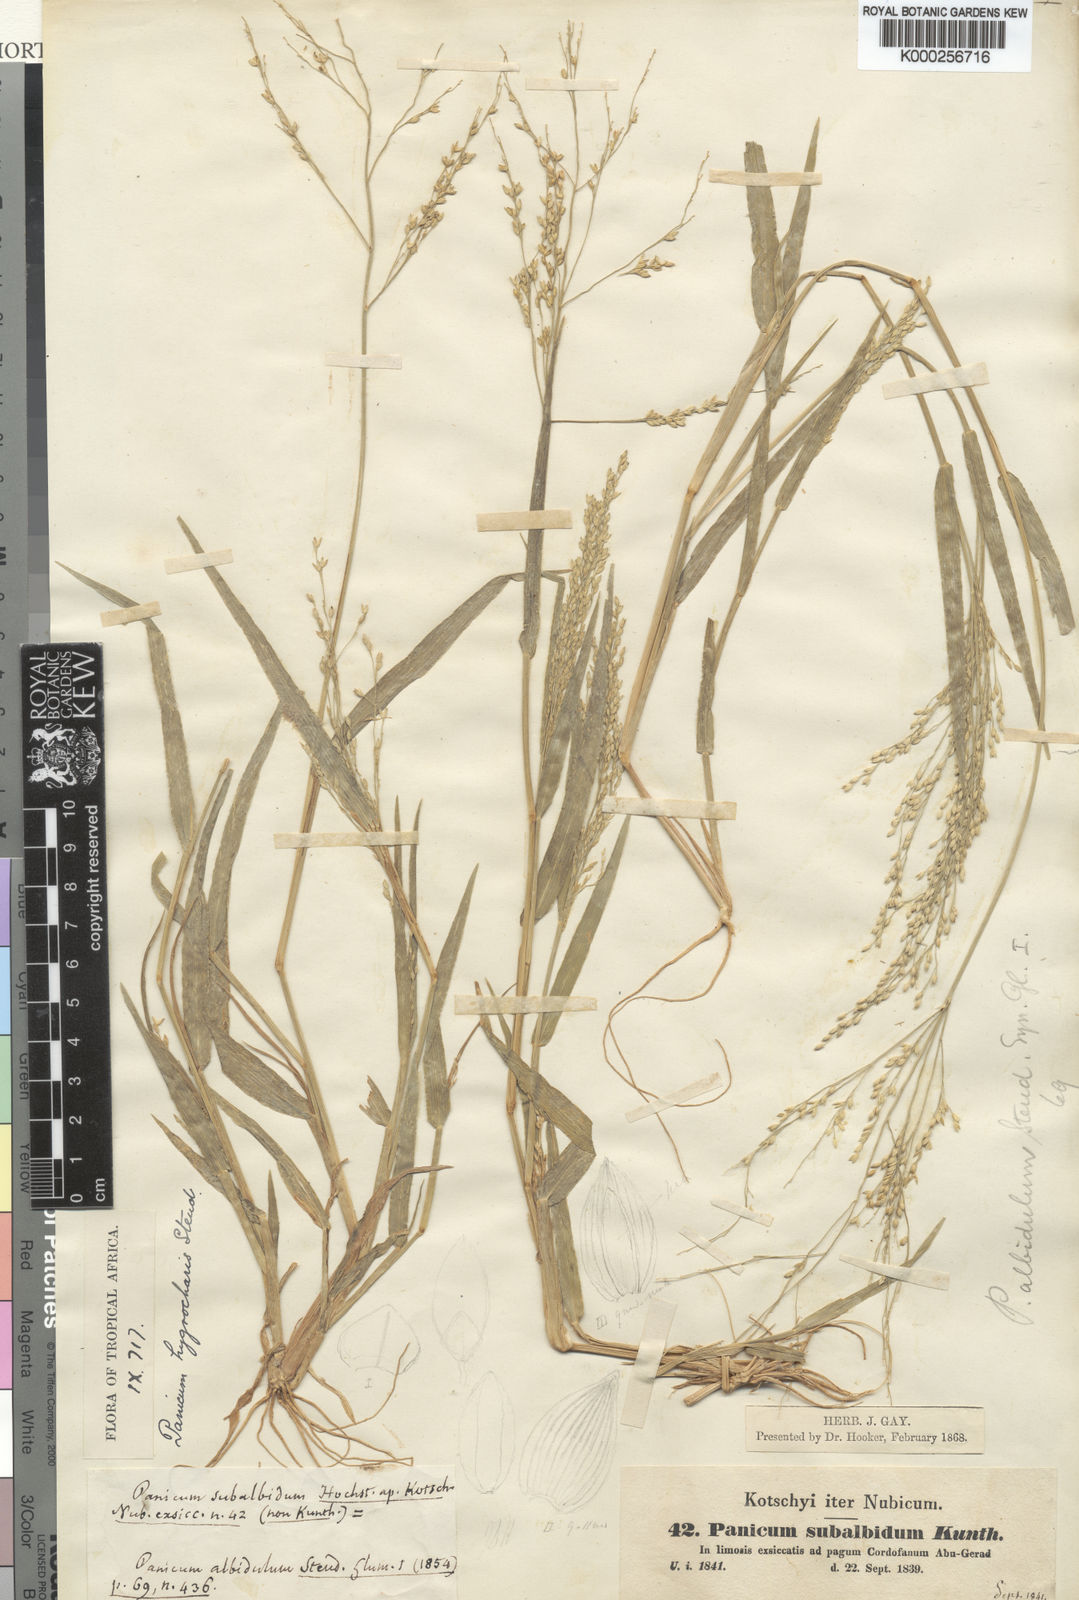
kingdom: Plantae
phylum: Tracheophyta
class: Liliopsida
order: Poales
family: Poaceae
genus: Panicum
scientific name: Panicum laetum
